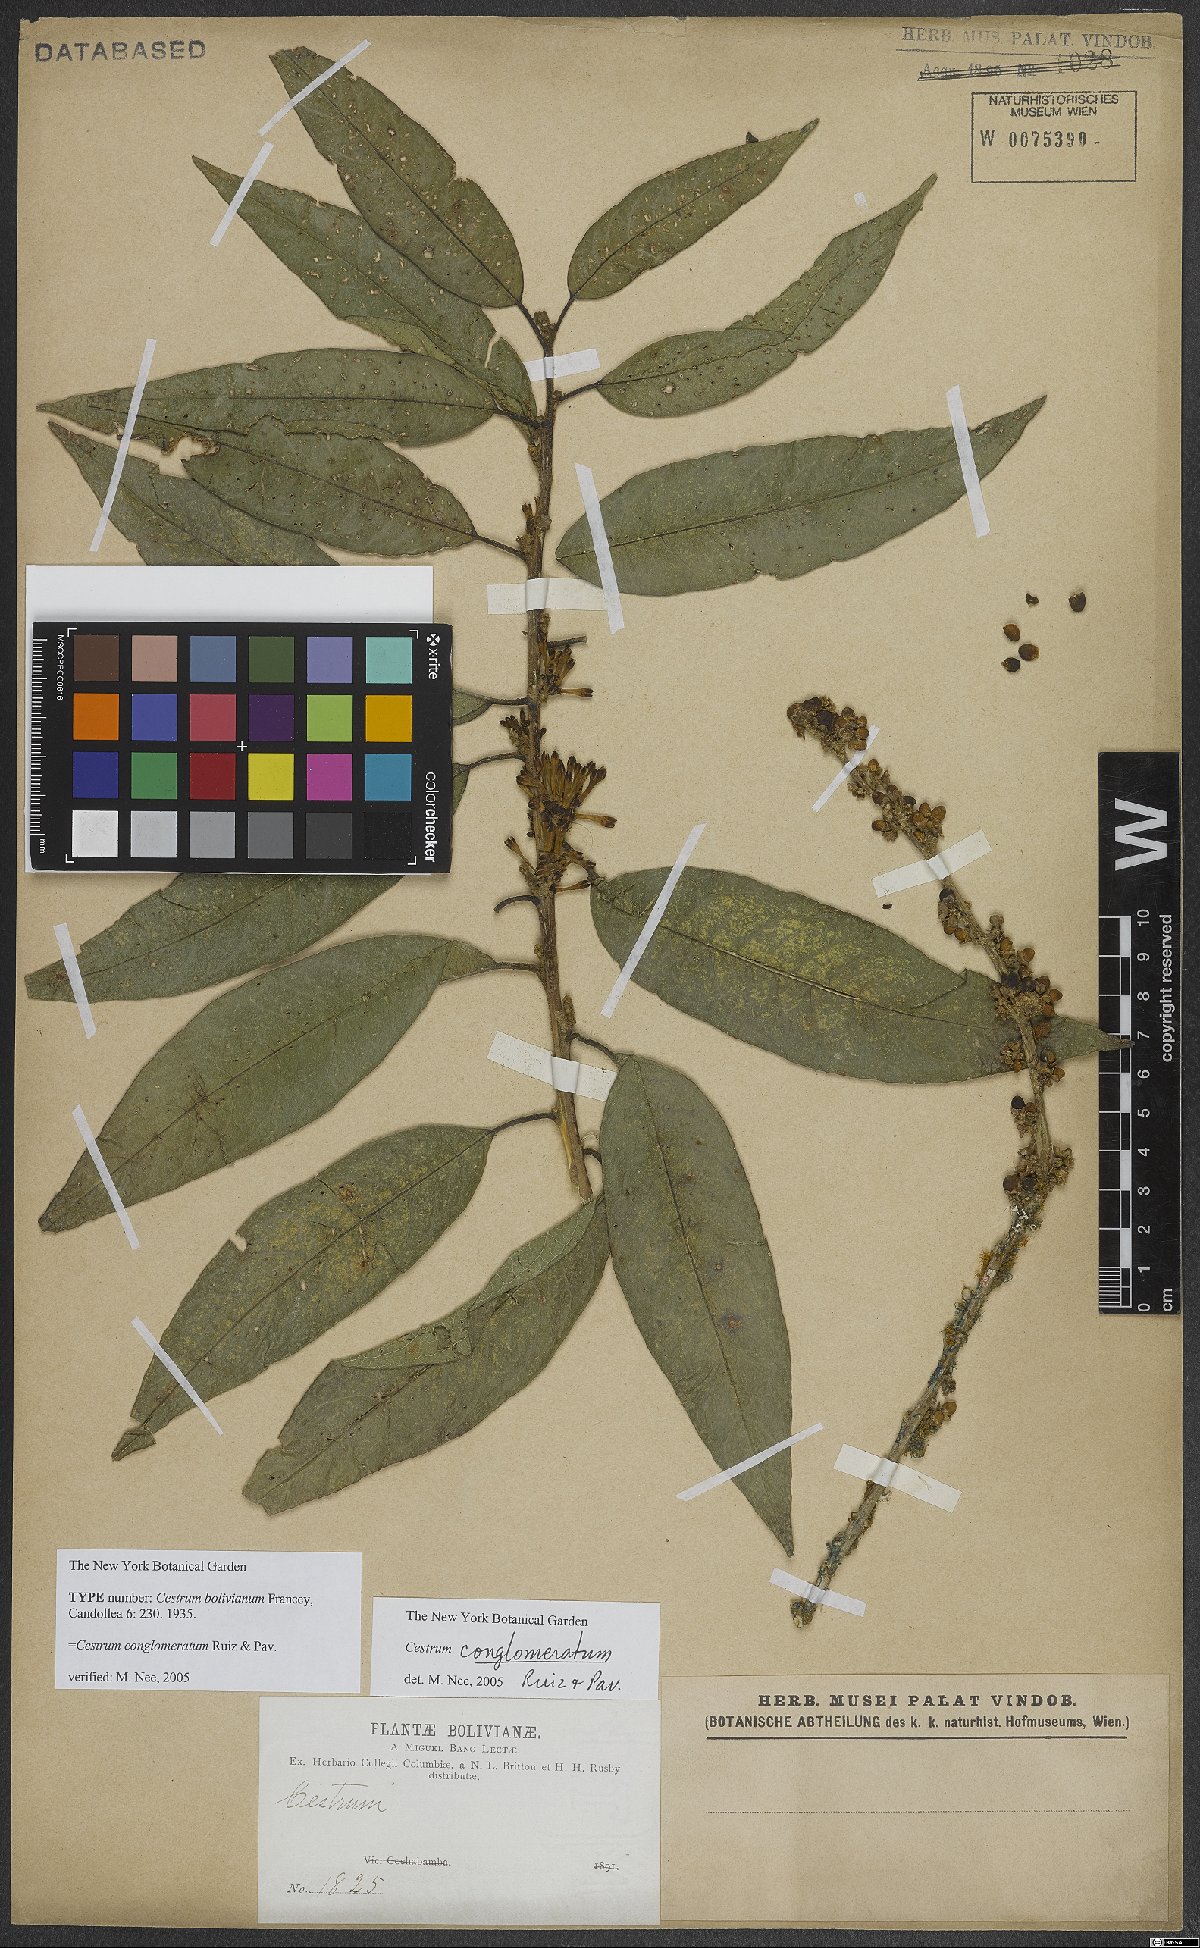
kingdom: Plantae
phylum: Tracheophyta
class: Magnoliopsida
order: Solanales
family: Solanaceae
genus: Cestrum
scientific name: Cestrum conglomeratum
